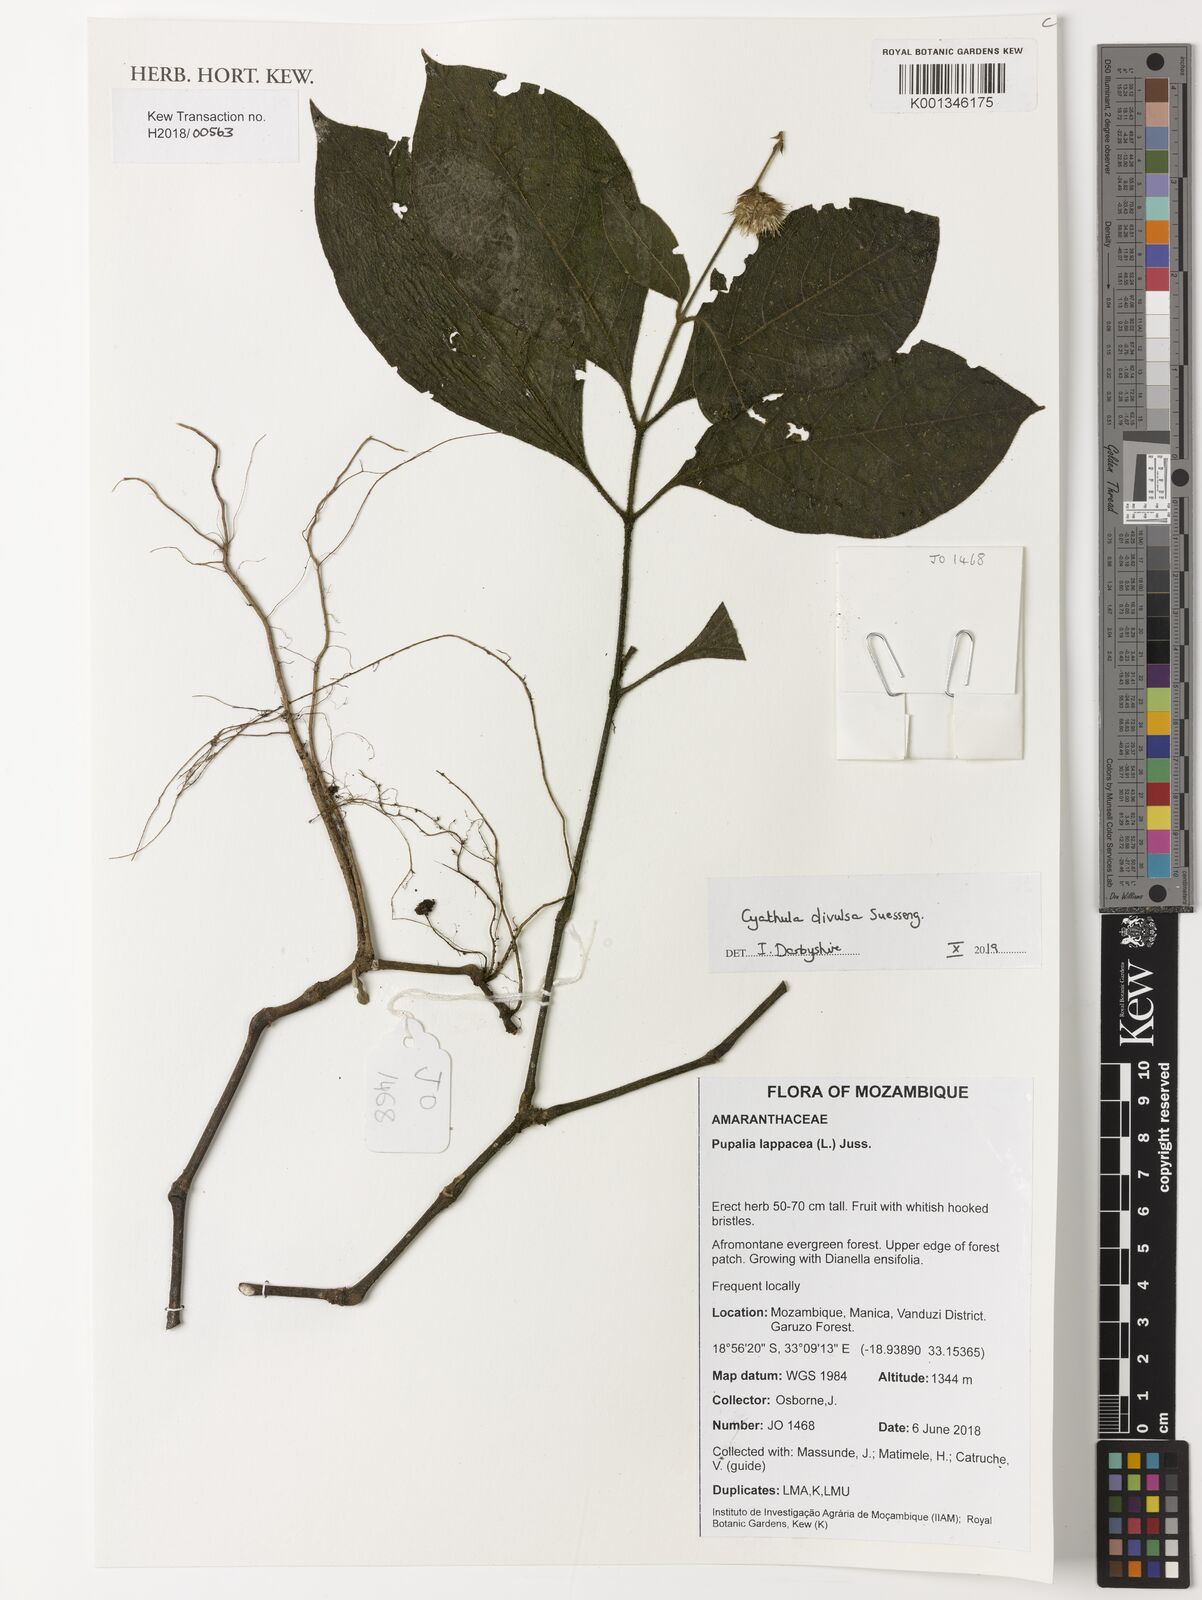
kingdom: Plantae
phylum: Tracheophyta
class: Magnoliopsida
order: Caryophyllales
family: Amaranthaceae
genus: Cyathula
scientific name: Cyathula divulsa
